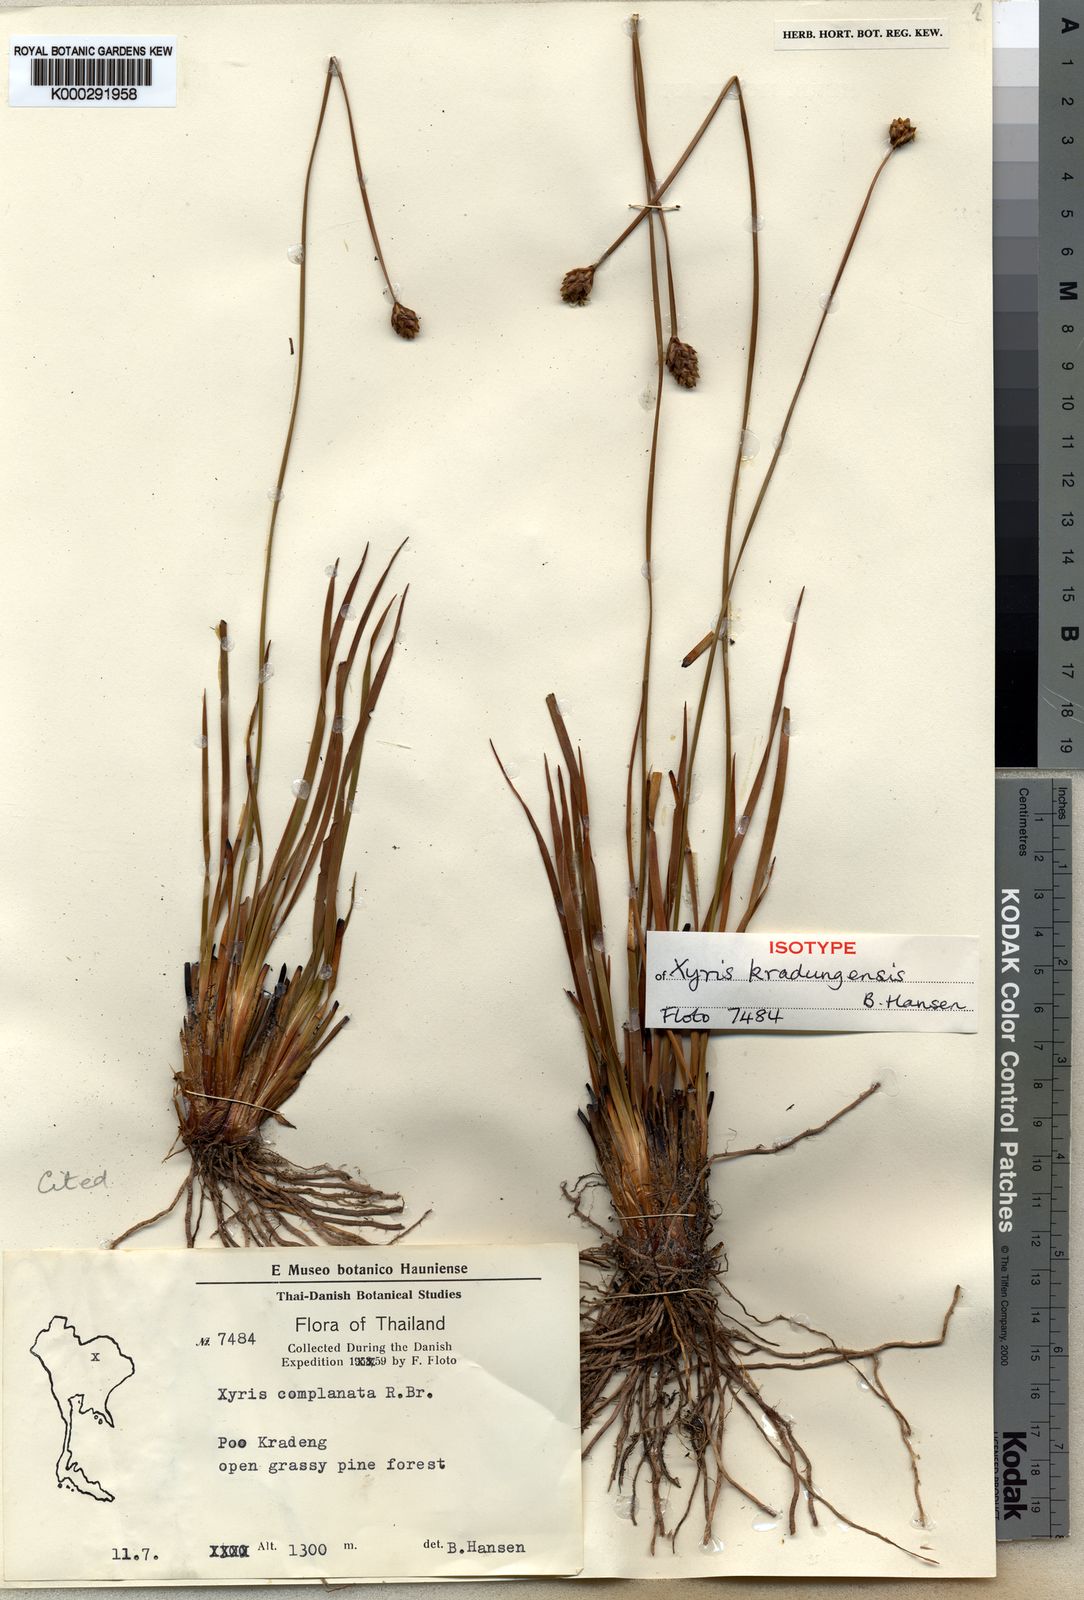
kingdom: Plantae
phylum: Tracheophyta
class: Liliopsida
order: Poales
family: Xyridaceae
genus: Xyris
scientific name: Xyris kradungensis
